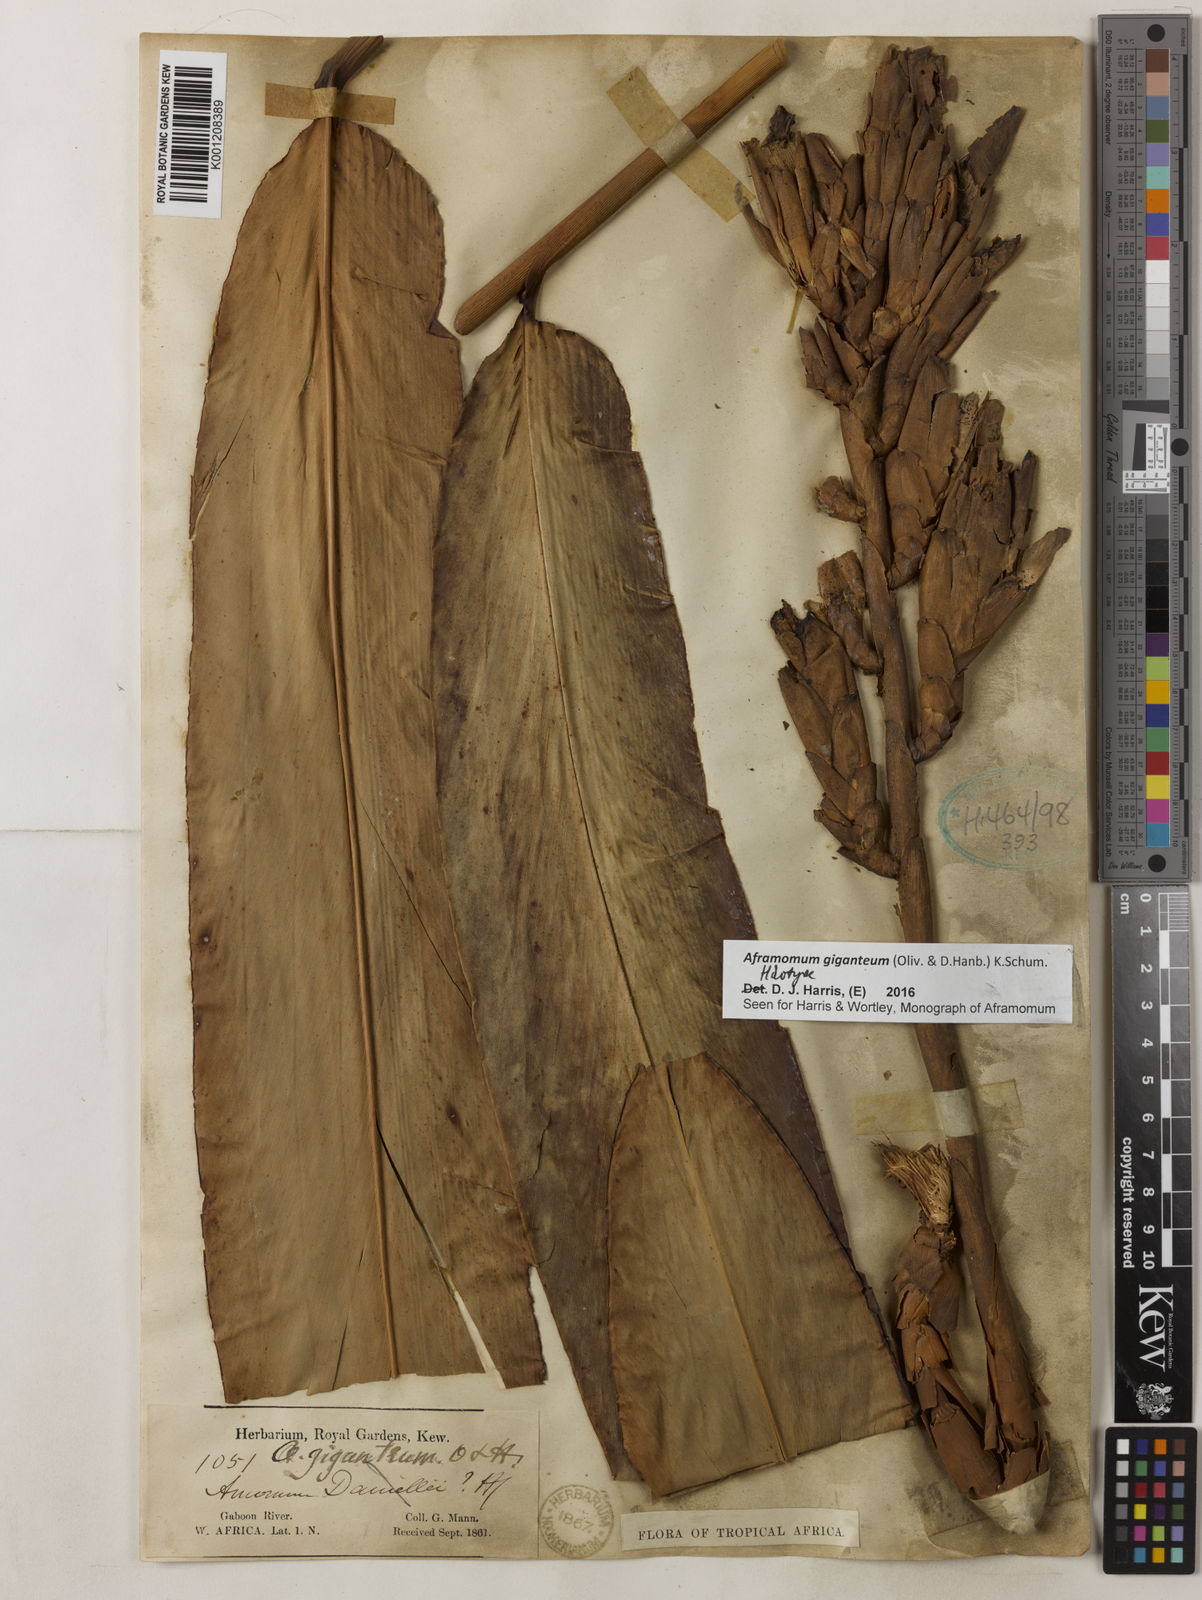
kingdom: Plantae
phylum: Tracheophyta
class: Liliopsida
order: Zingiberales
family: Zingiberaceae
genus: Aframomum
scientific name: Aframomum giganteum
